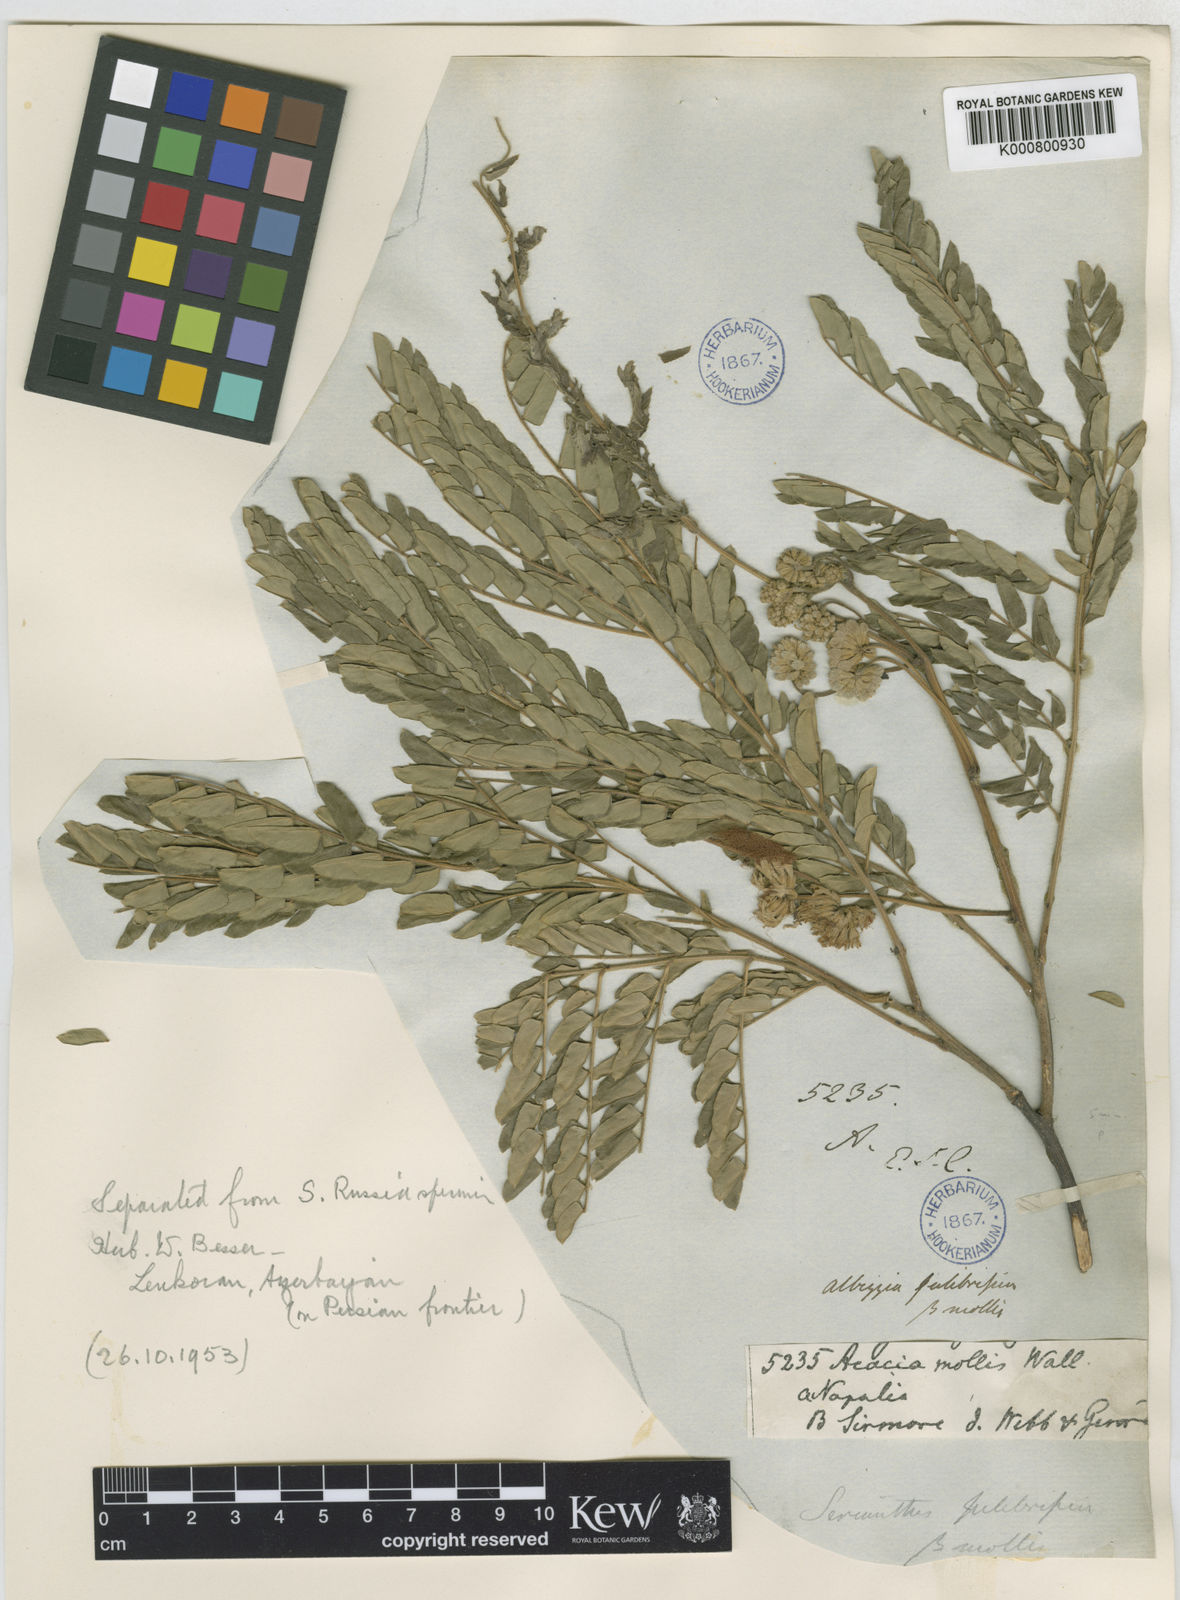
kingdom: Plantae
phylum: Tracheophyta
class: Magnoliopsida
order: Fabales
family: Fabaceae
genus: Albizia
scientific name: Albizia julibrissin
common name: Silktree
